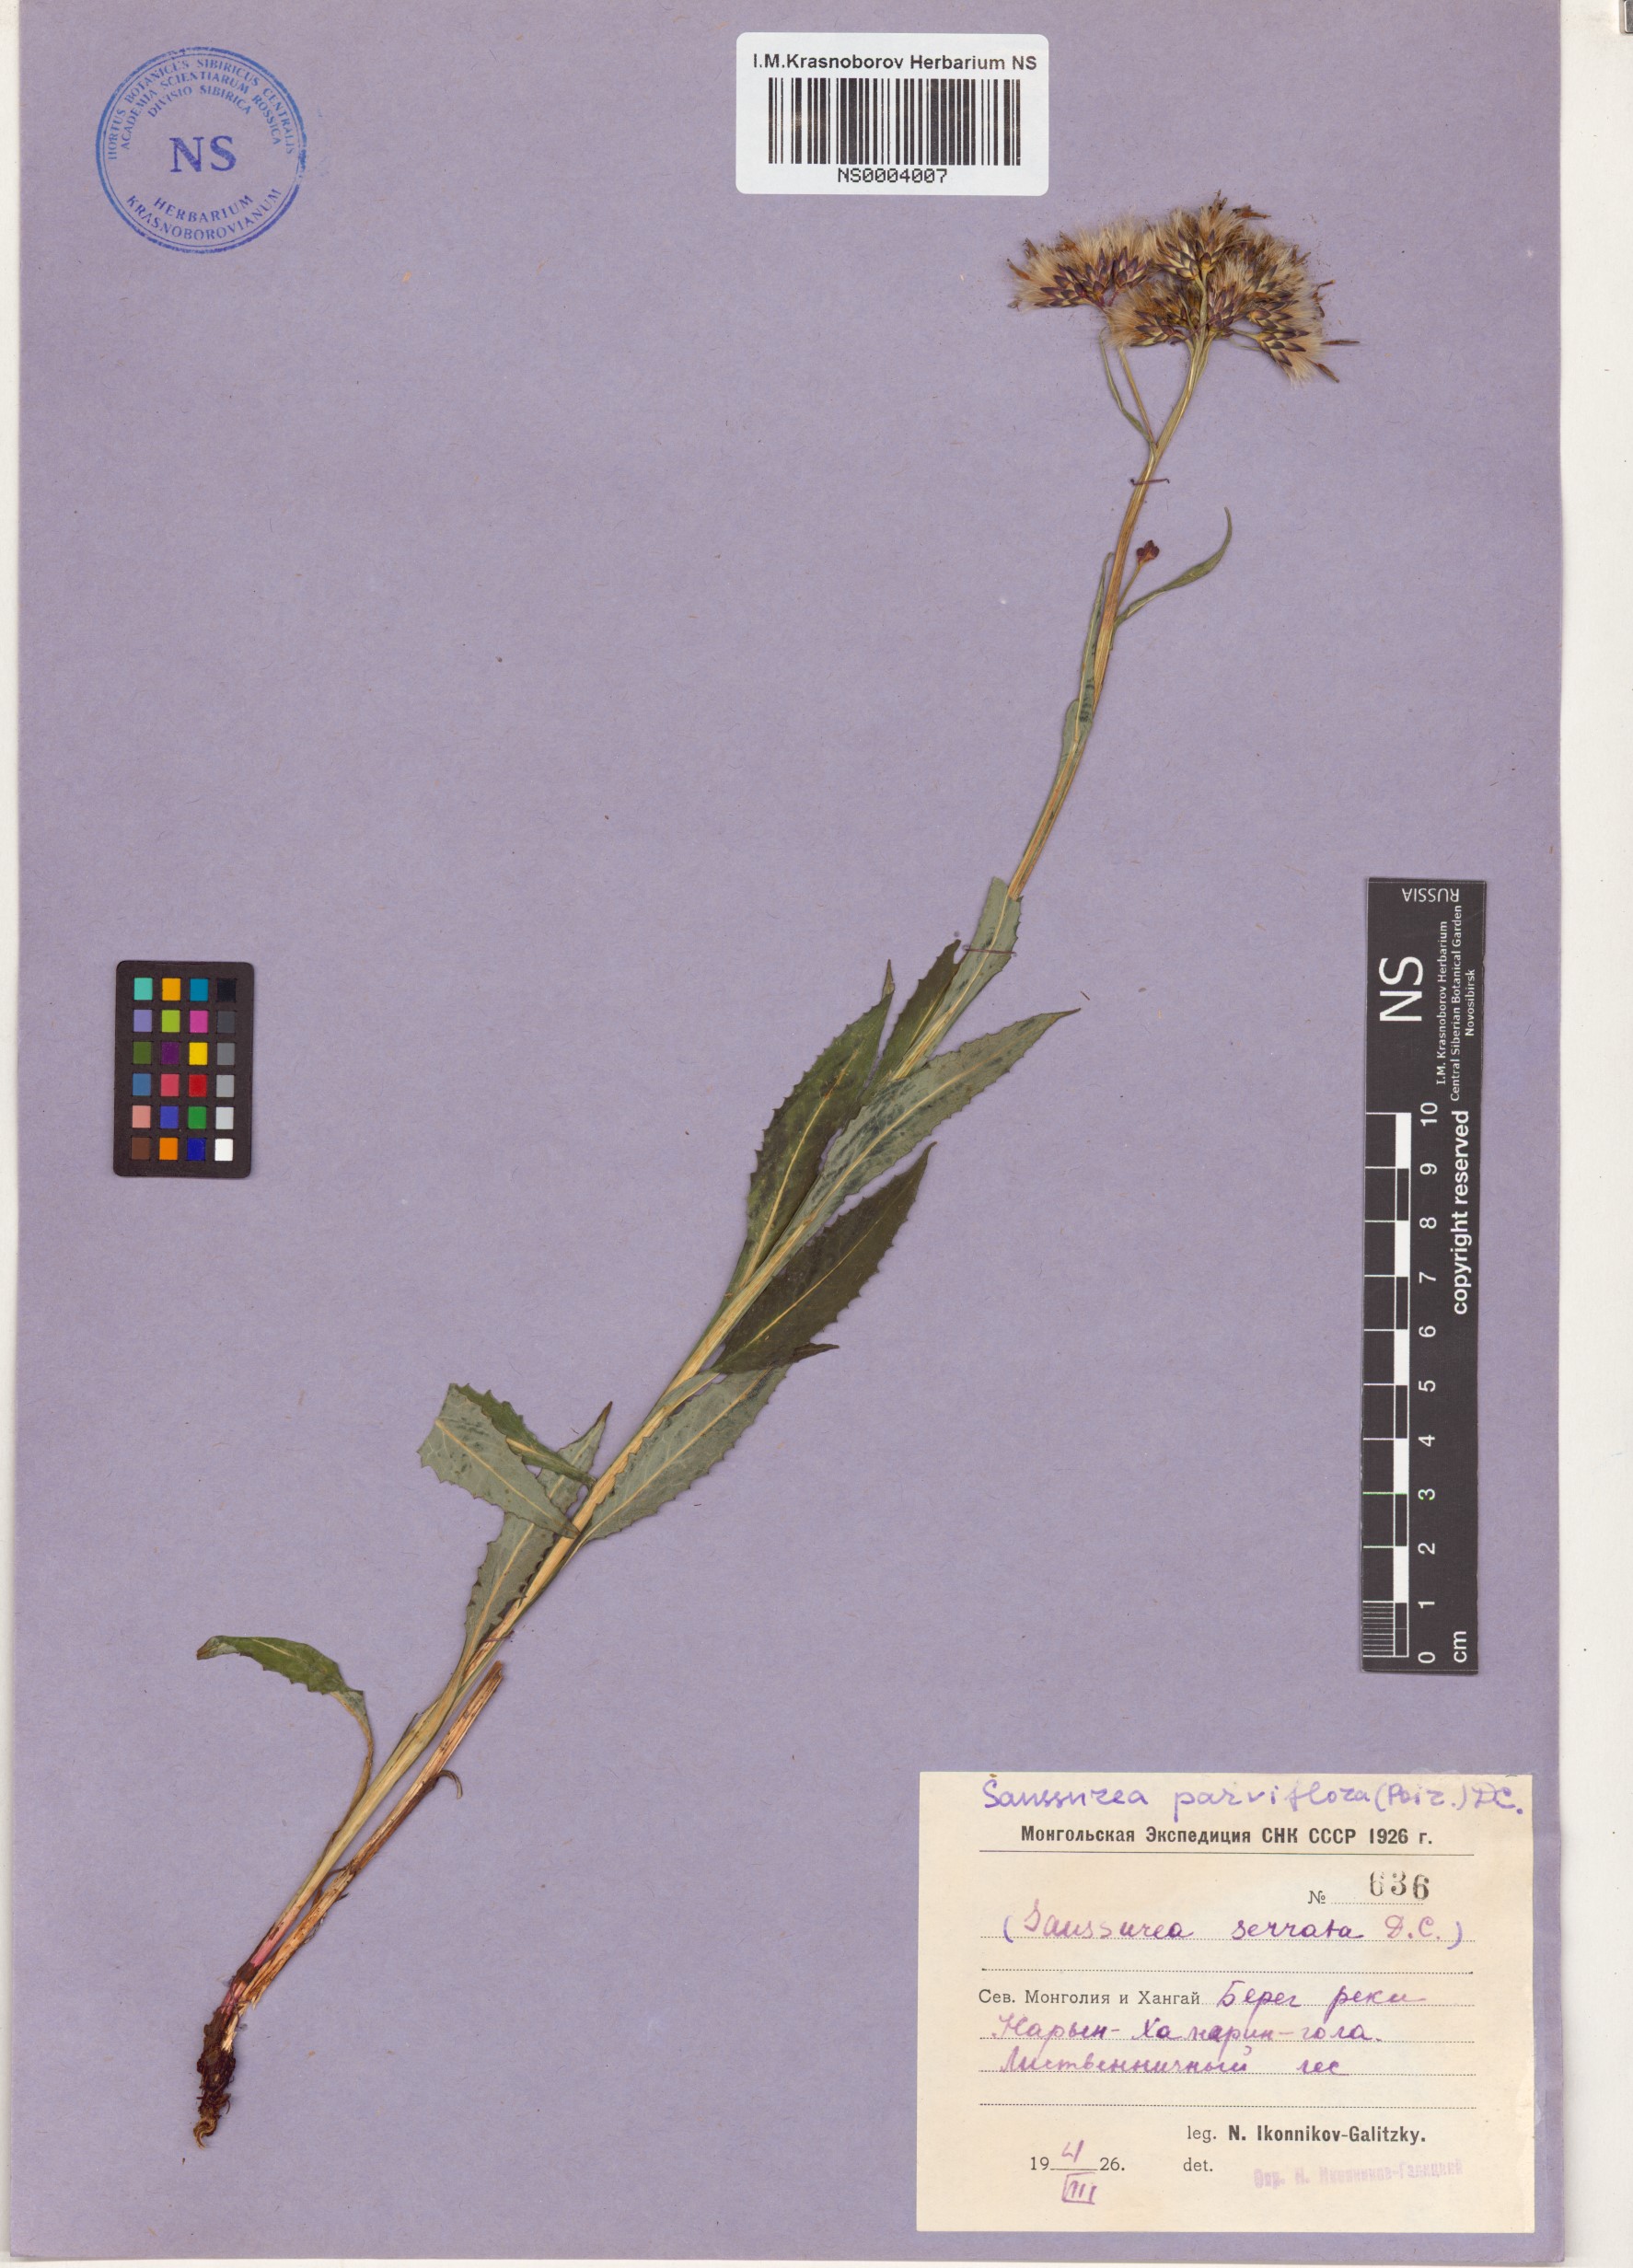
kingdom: Plantae
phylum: Tracheophyta
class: Magnoliopsida
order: Asterales
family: Asteraceae
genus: Saussurea
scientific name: Saussurea parviflora
